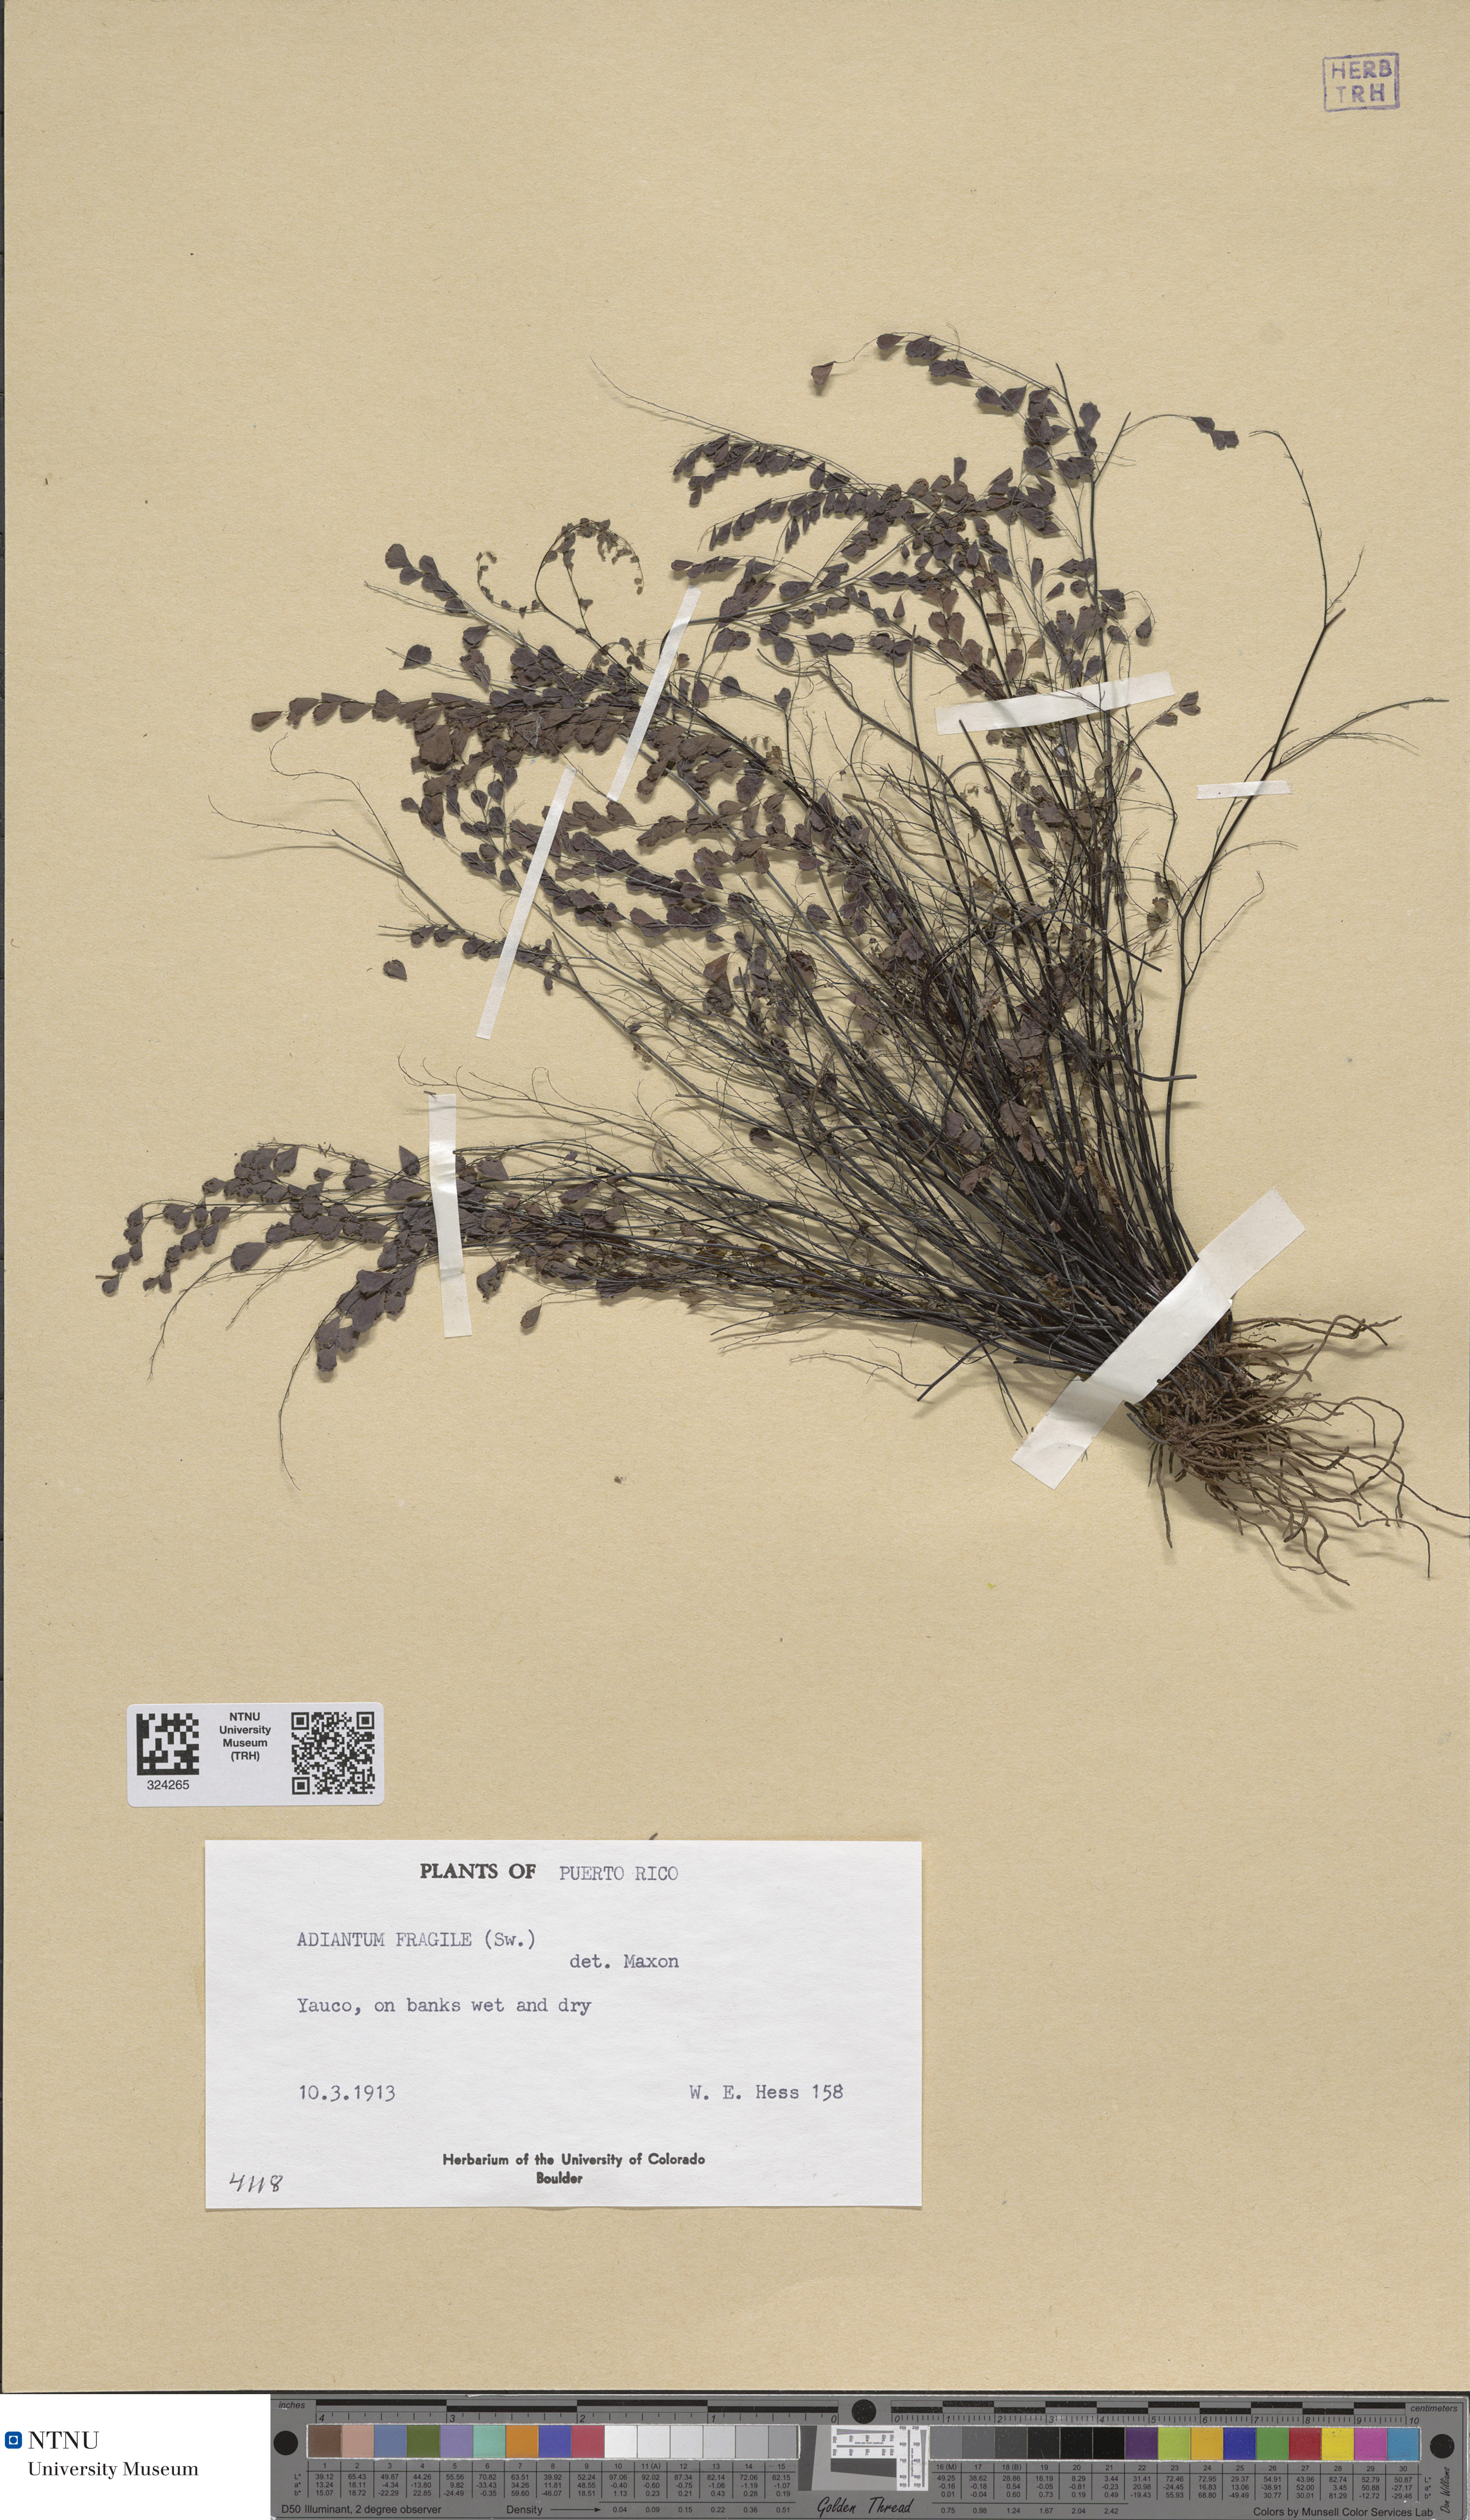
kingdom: Plantae
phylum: Tracheophyta
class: Polypodiopsida
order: Polypodiales
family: Pteridaceae
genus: Adiantum
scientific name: Adiantum fragile
